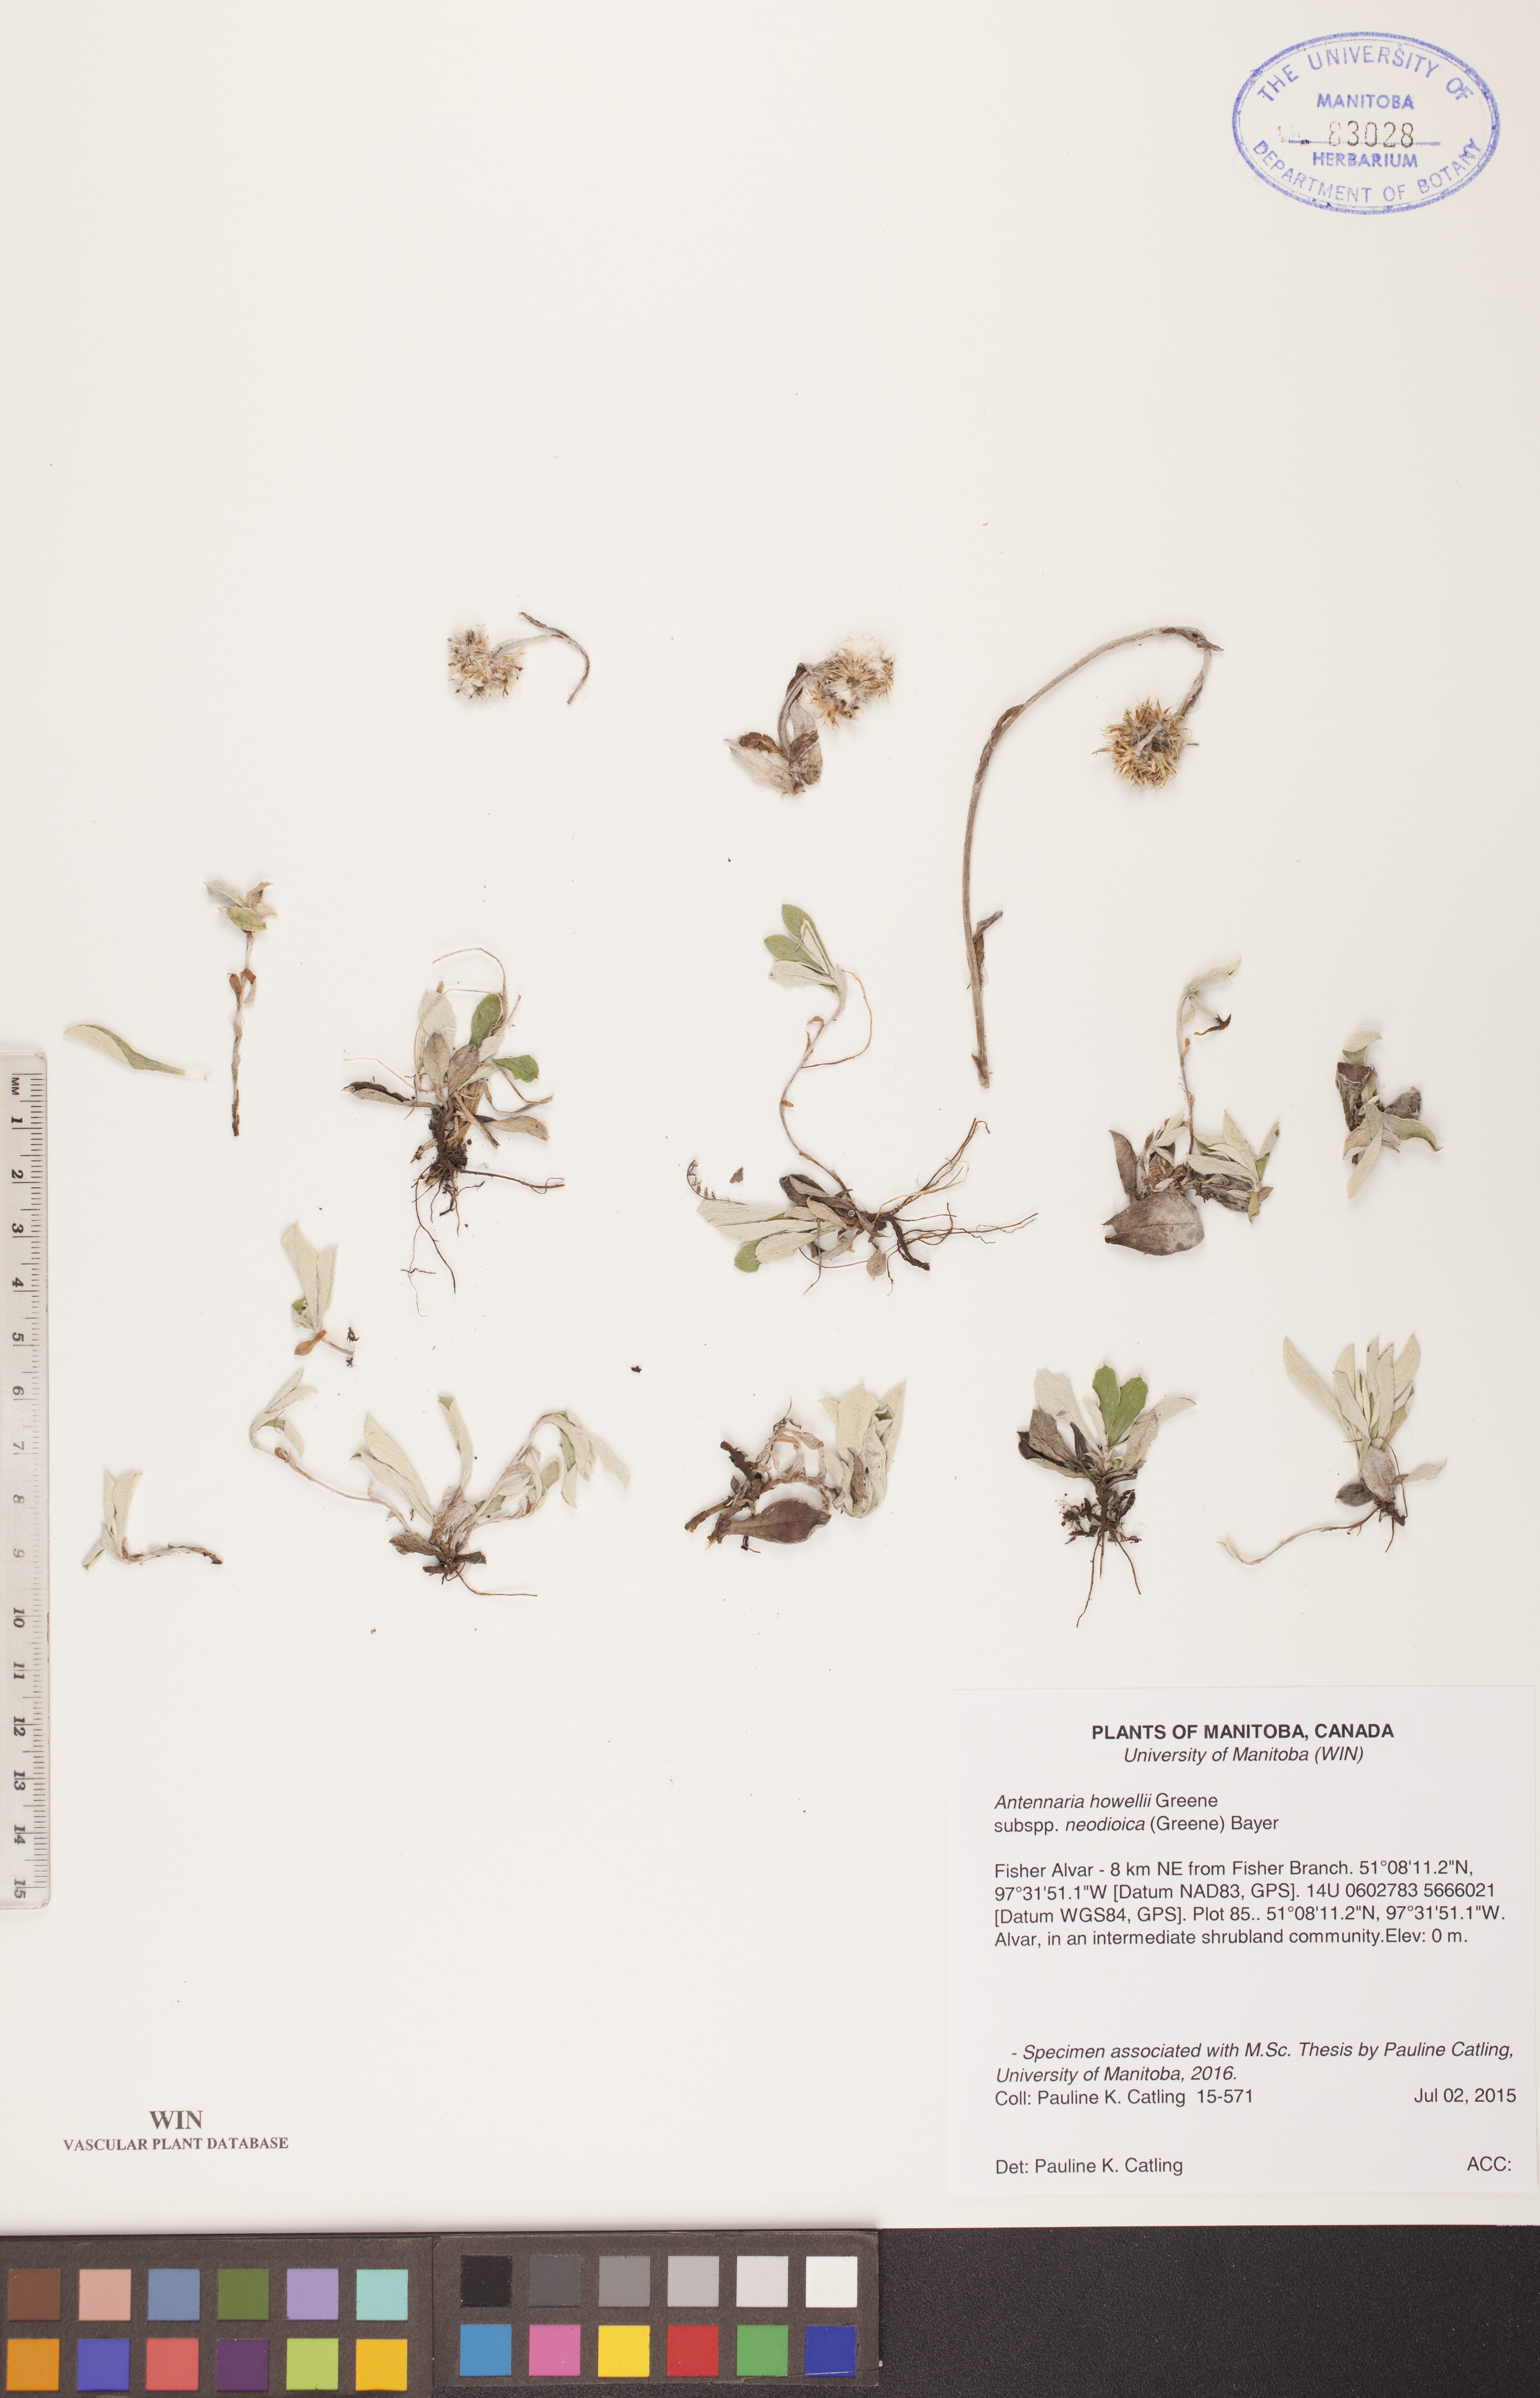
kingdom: Plantae
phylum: Tracheophyta
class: Magnoliopsida
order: Asterales
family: Asteraceae
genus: Antennaria
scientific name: Antennaria howellii
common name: Howell's pussytoes
